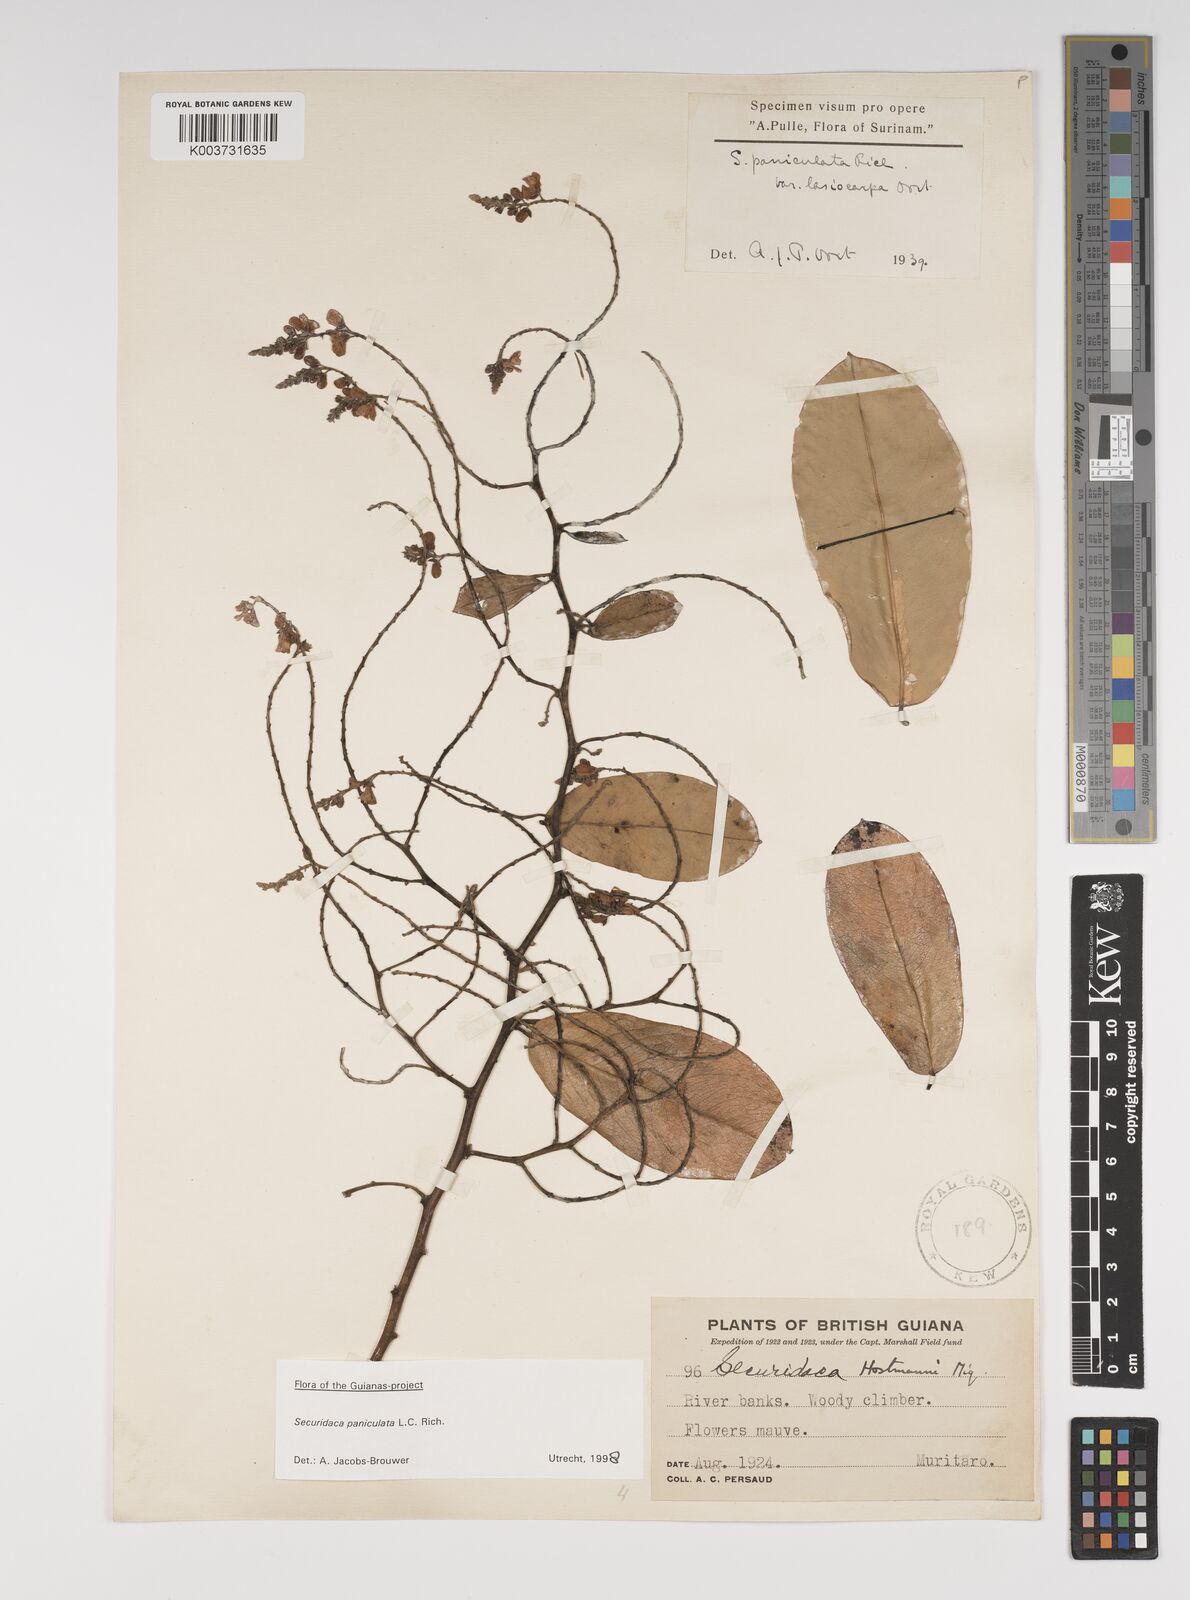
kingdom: Plantae
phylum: Tracheophyta
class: Magnoliopsida
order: Fabales
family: Polygalaceae
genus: Securidaca
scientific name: Securidaca paniculata
